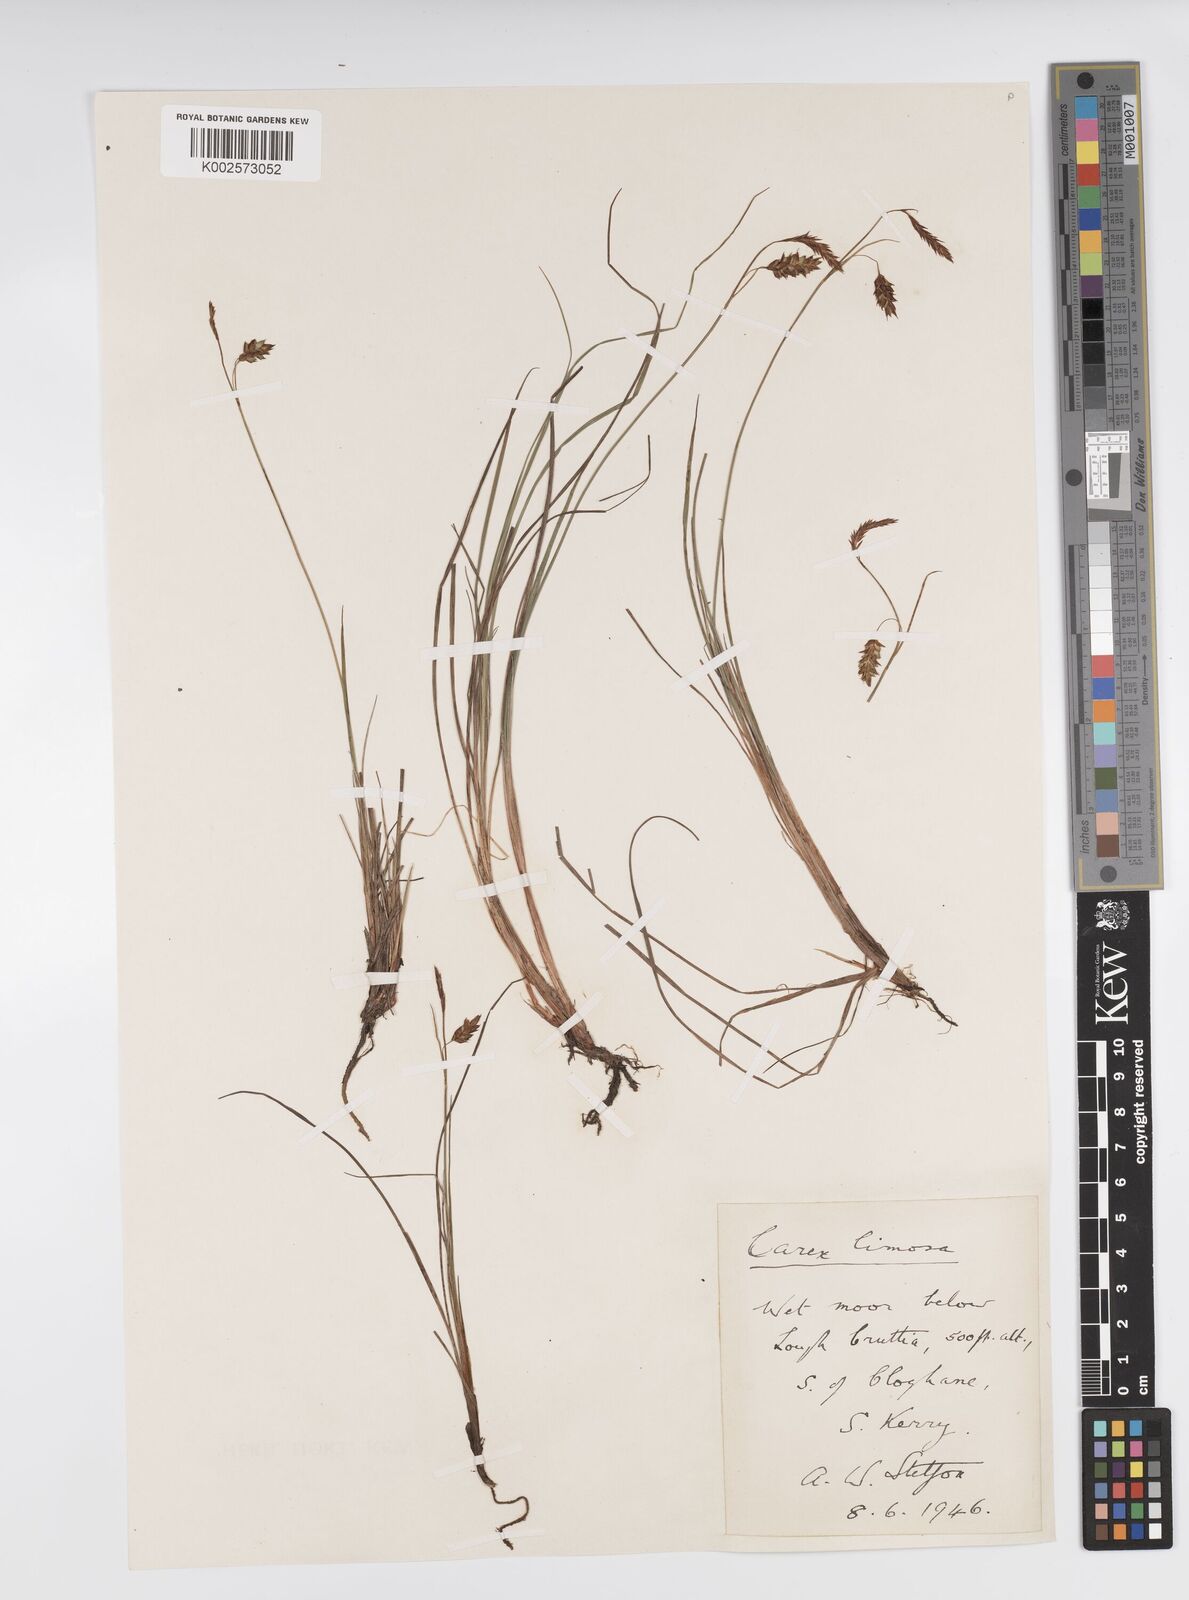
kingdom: Plantae
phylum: Tracheophyta
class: Liliopsida
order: Poales
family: Cyperaceae
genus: Carex
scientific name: Carex limosa
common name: Bog sedge
